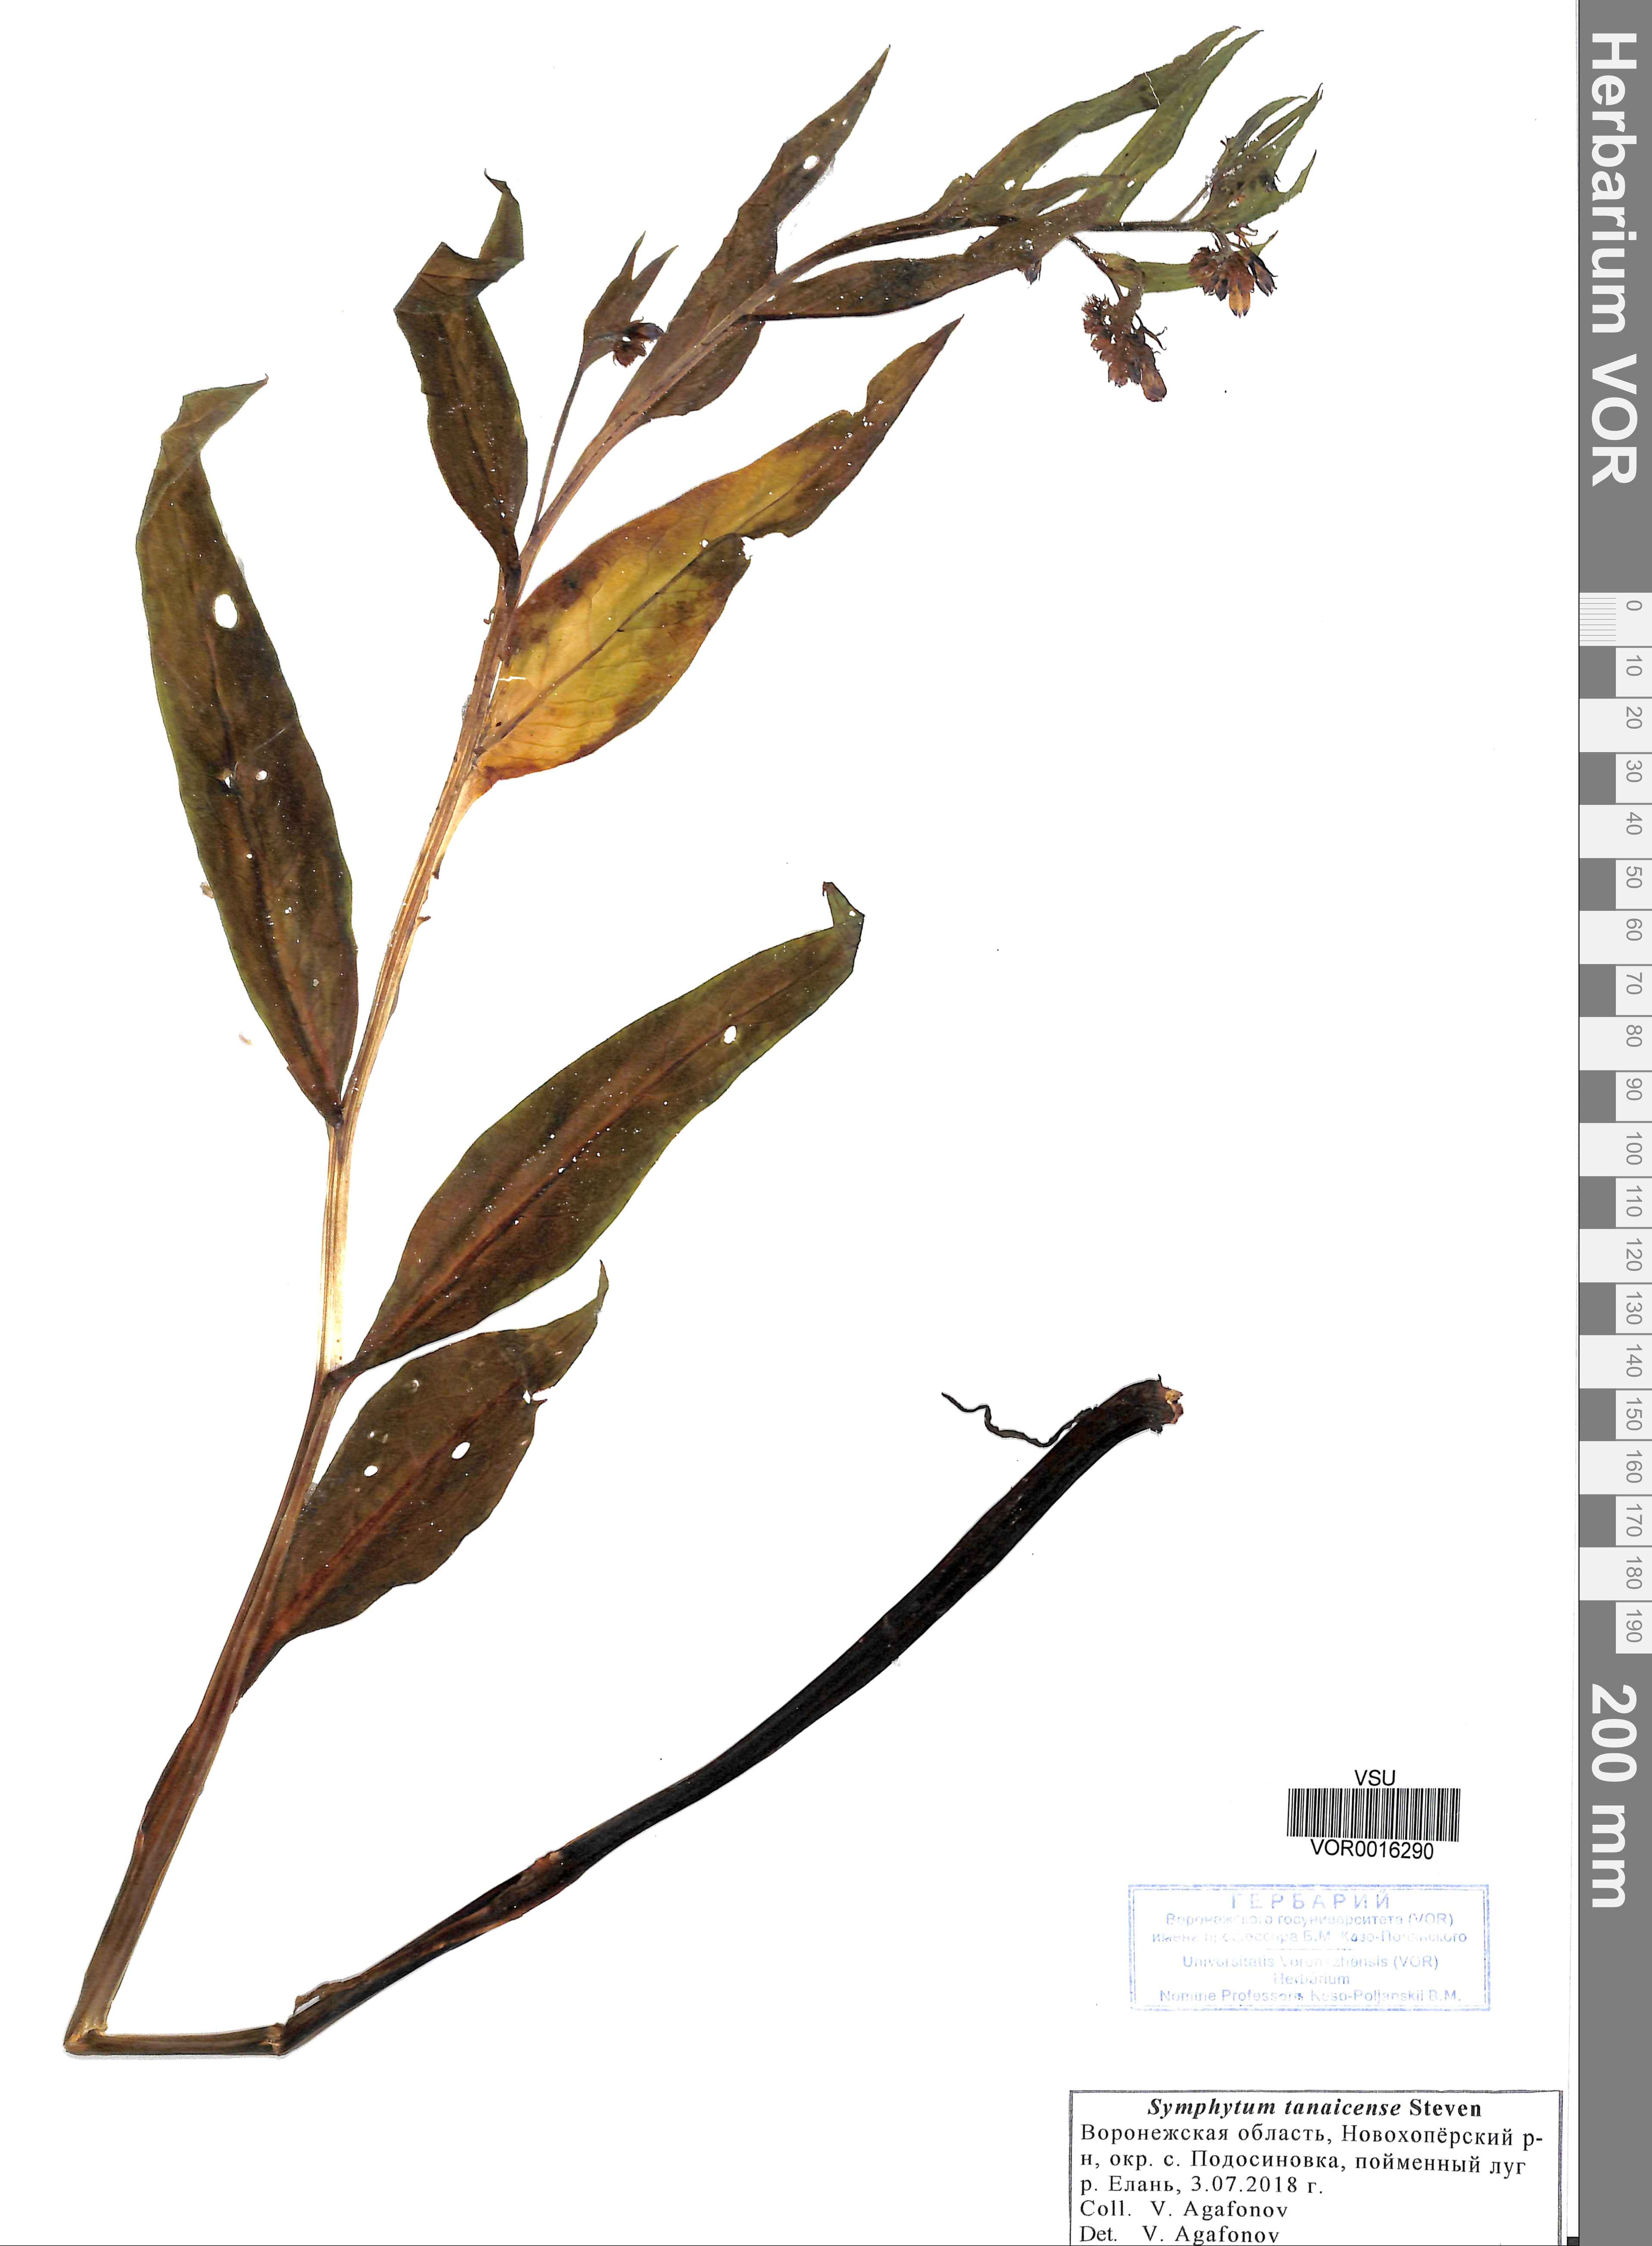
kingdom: Plantae
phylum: Tracheophyta
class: Magnoliopsida
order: Boraginales
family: Boraginaceae
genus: Symphytum
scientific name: Symphytum tauricum
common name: Crimean comfrey
